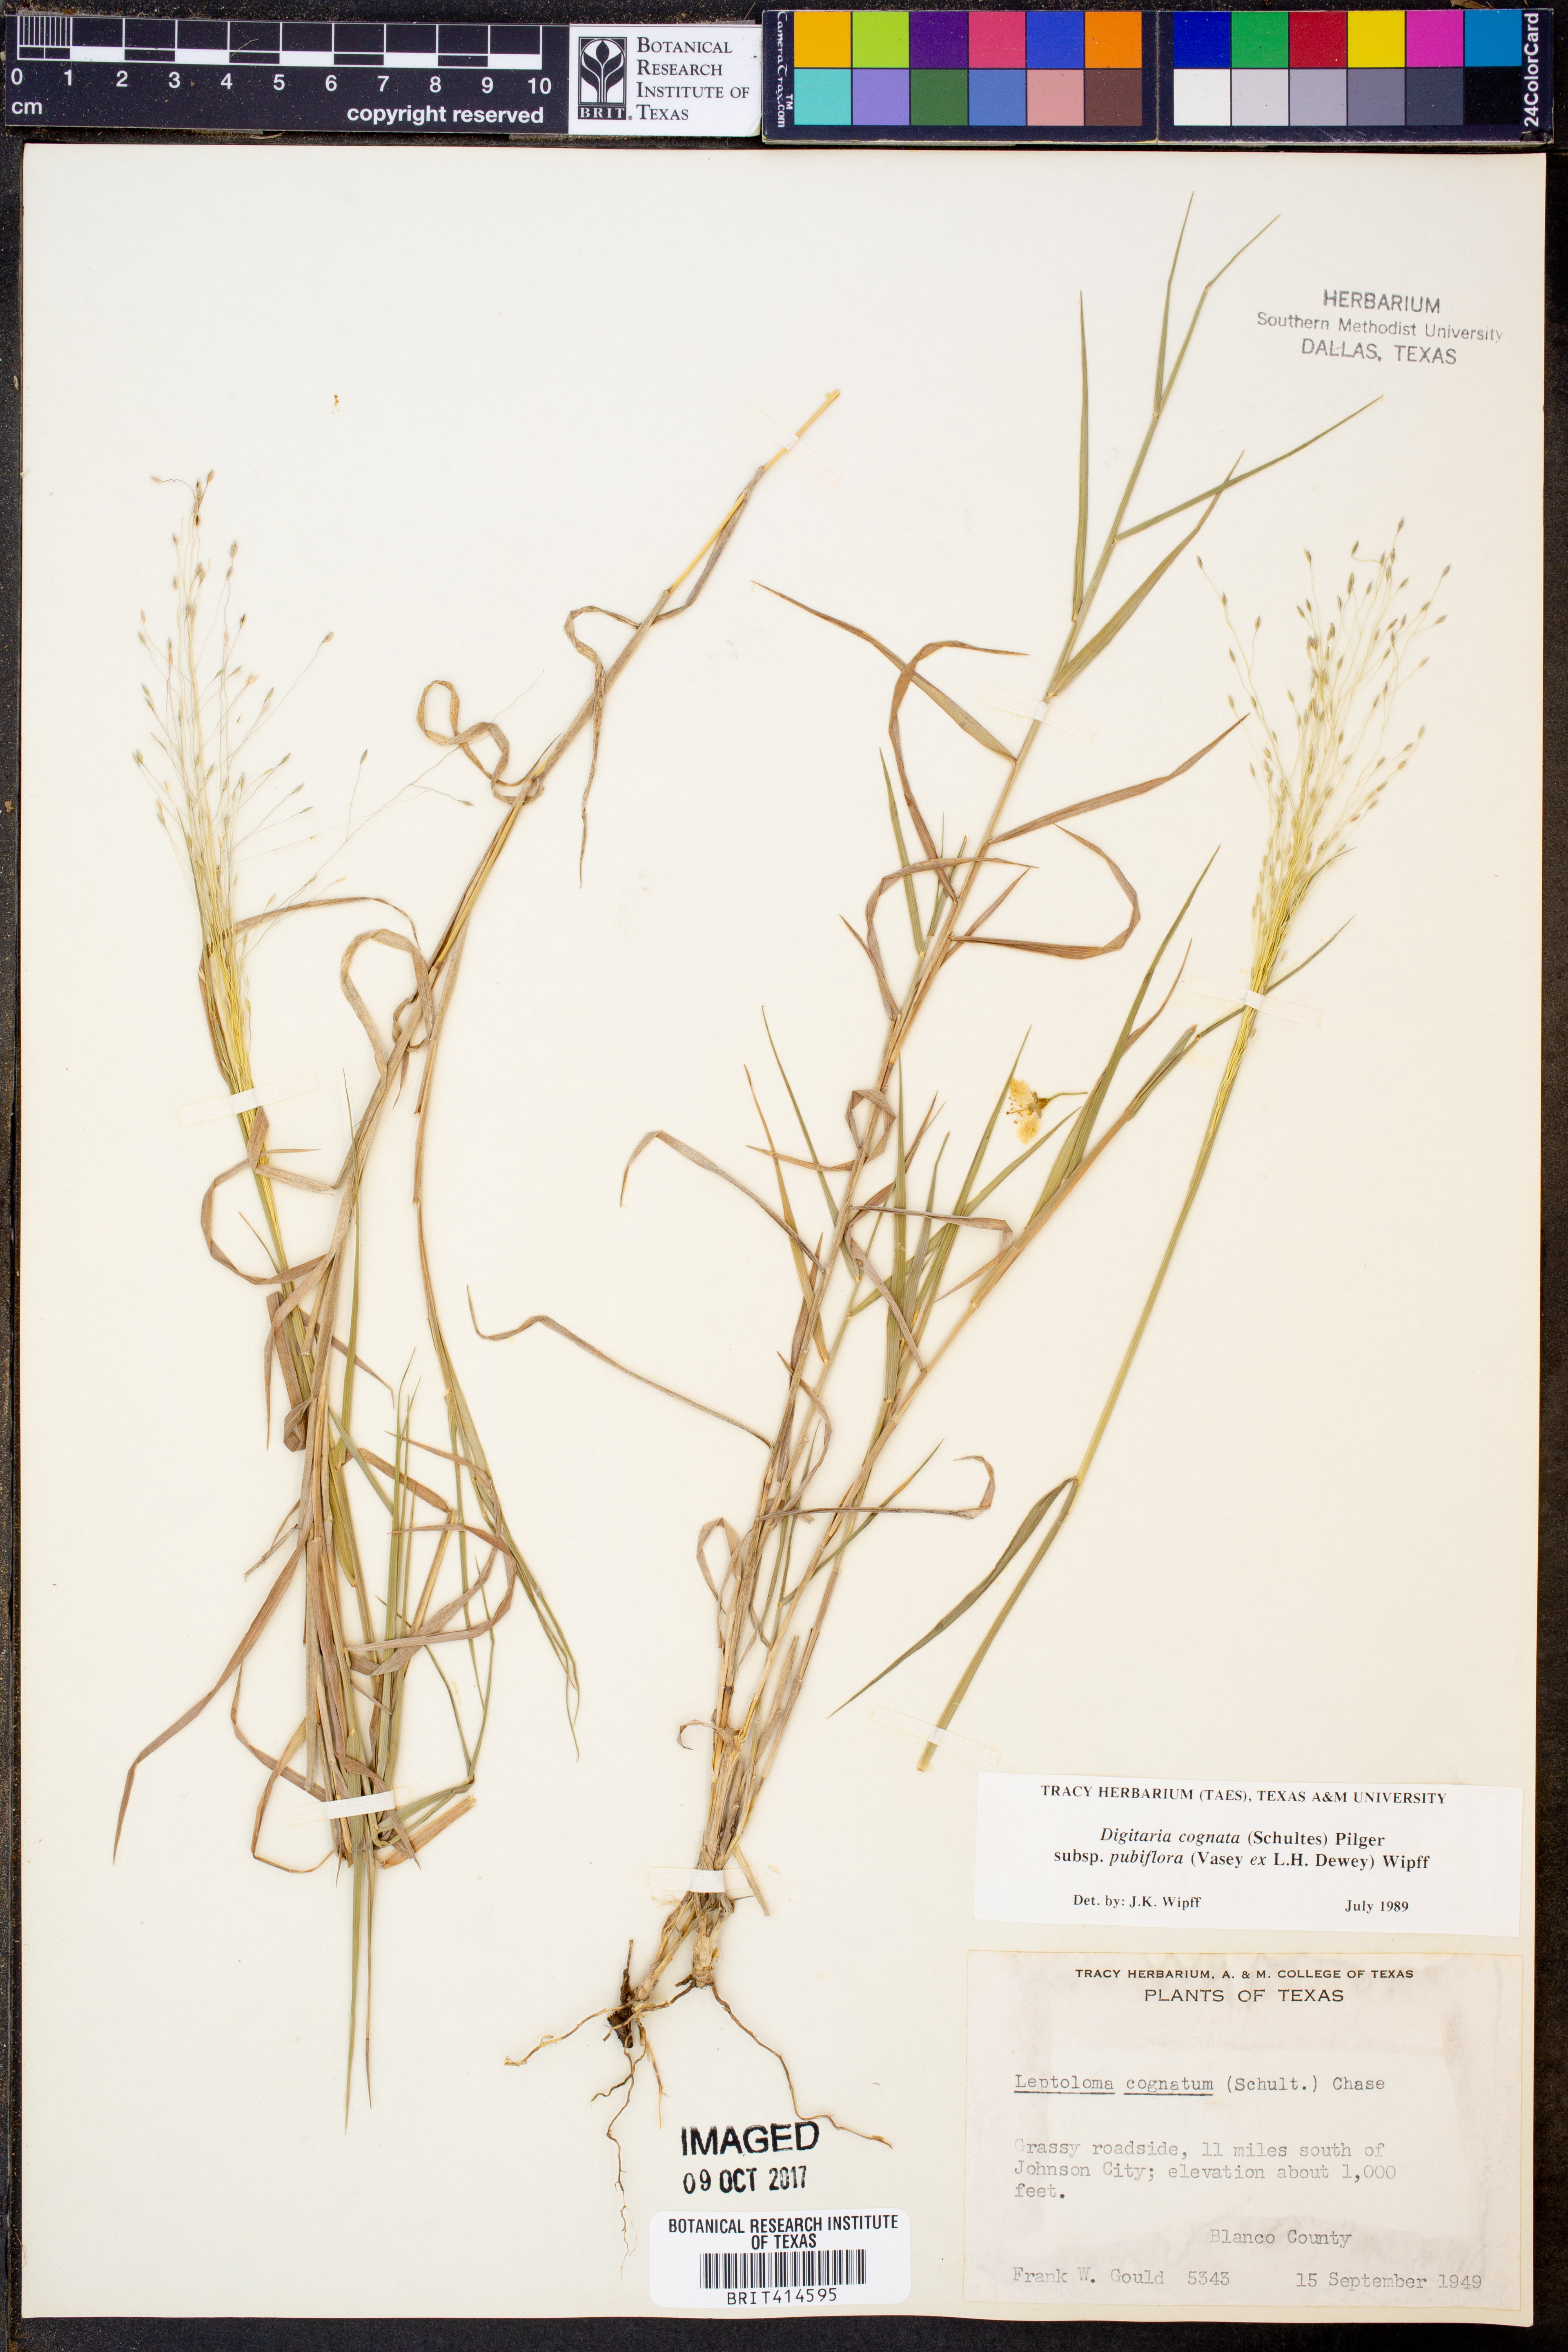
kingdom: Plantae
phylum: Tracheophyta
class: Liliopsida
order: Poales
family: Poaceae
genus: Digitaria
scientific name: Digitaria cognata
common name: Fall witchgrass
